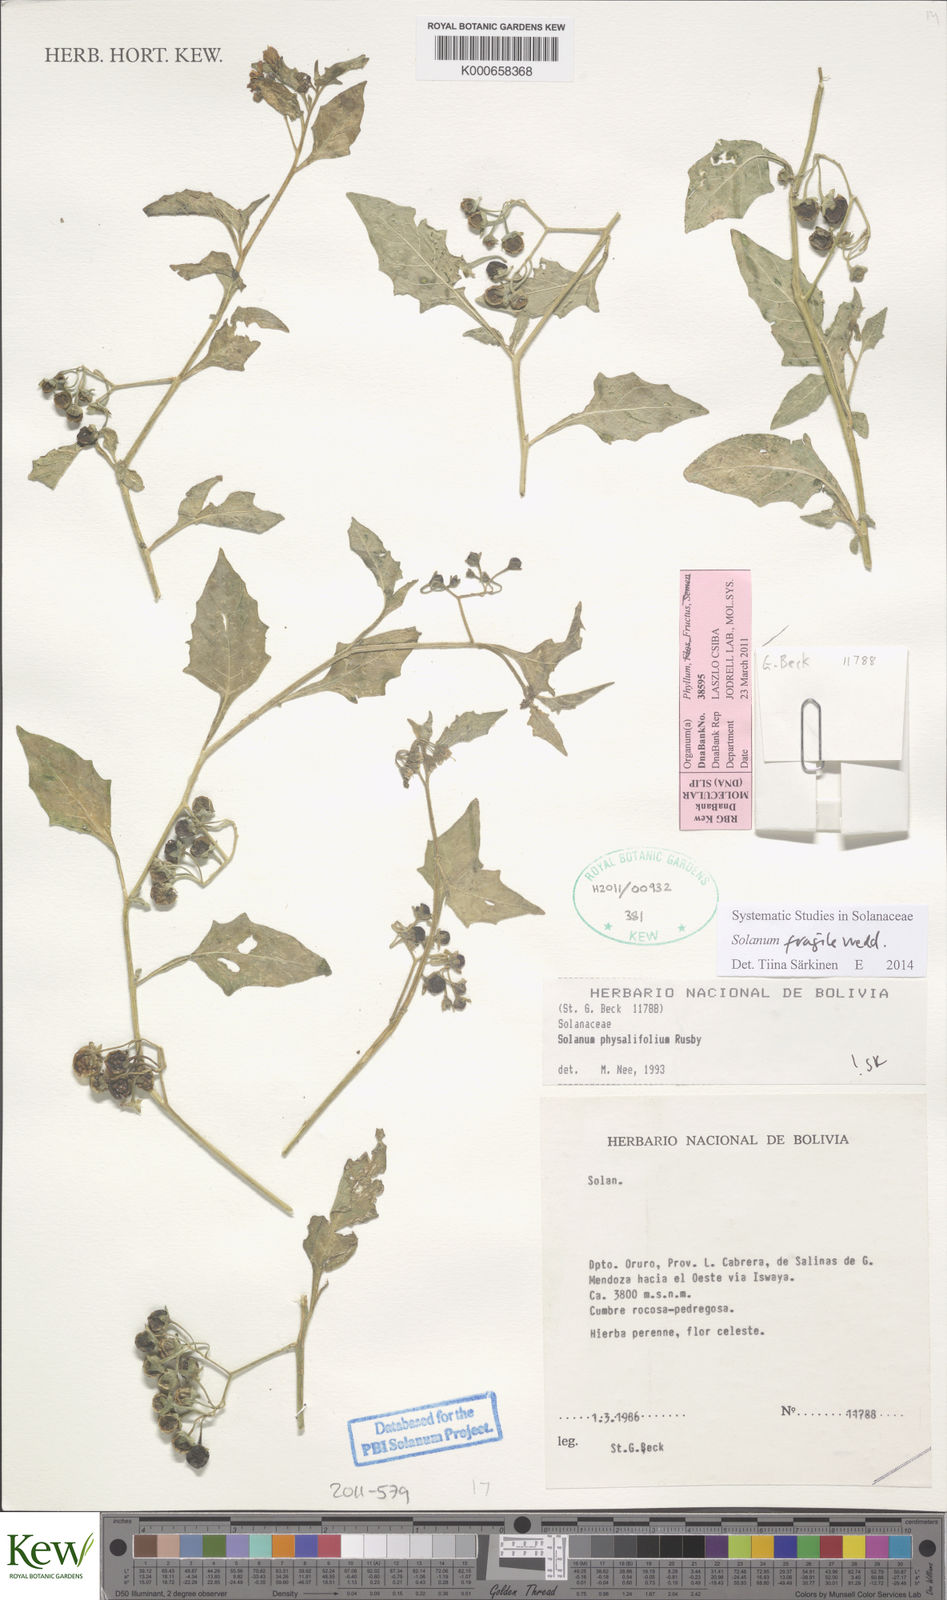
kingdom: Plantae
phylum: Tracheophyta
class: Magnoliopsida
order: Solanales
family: Solanaceae
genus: Solanum
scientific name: Solanum fragile
